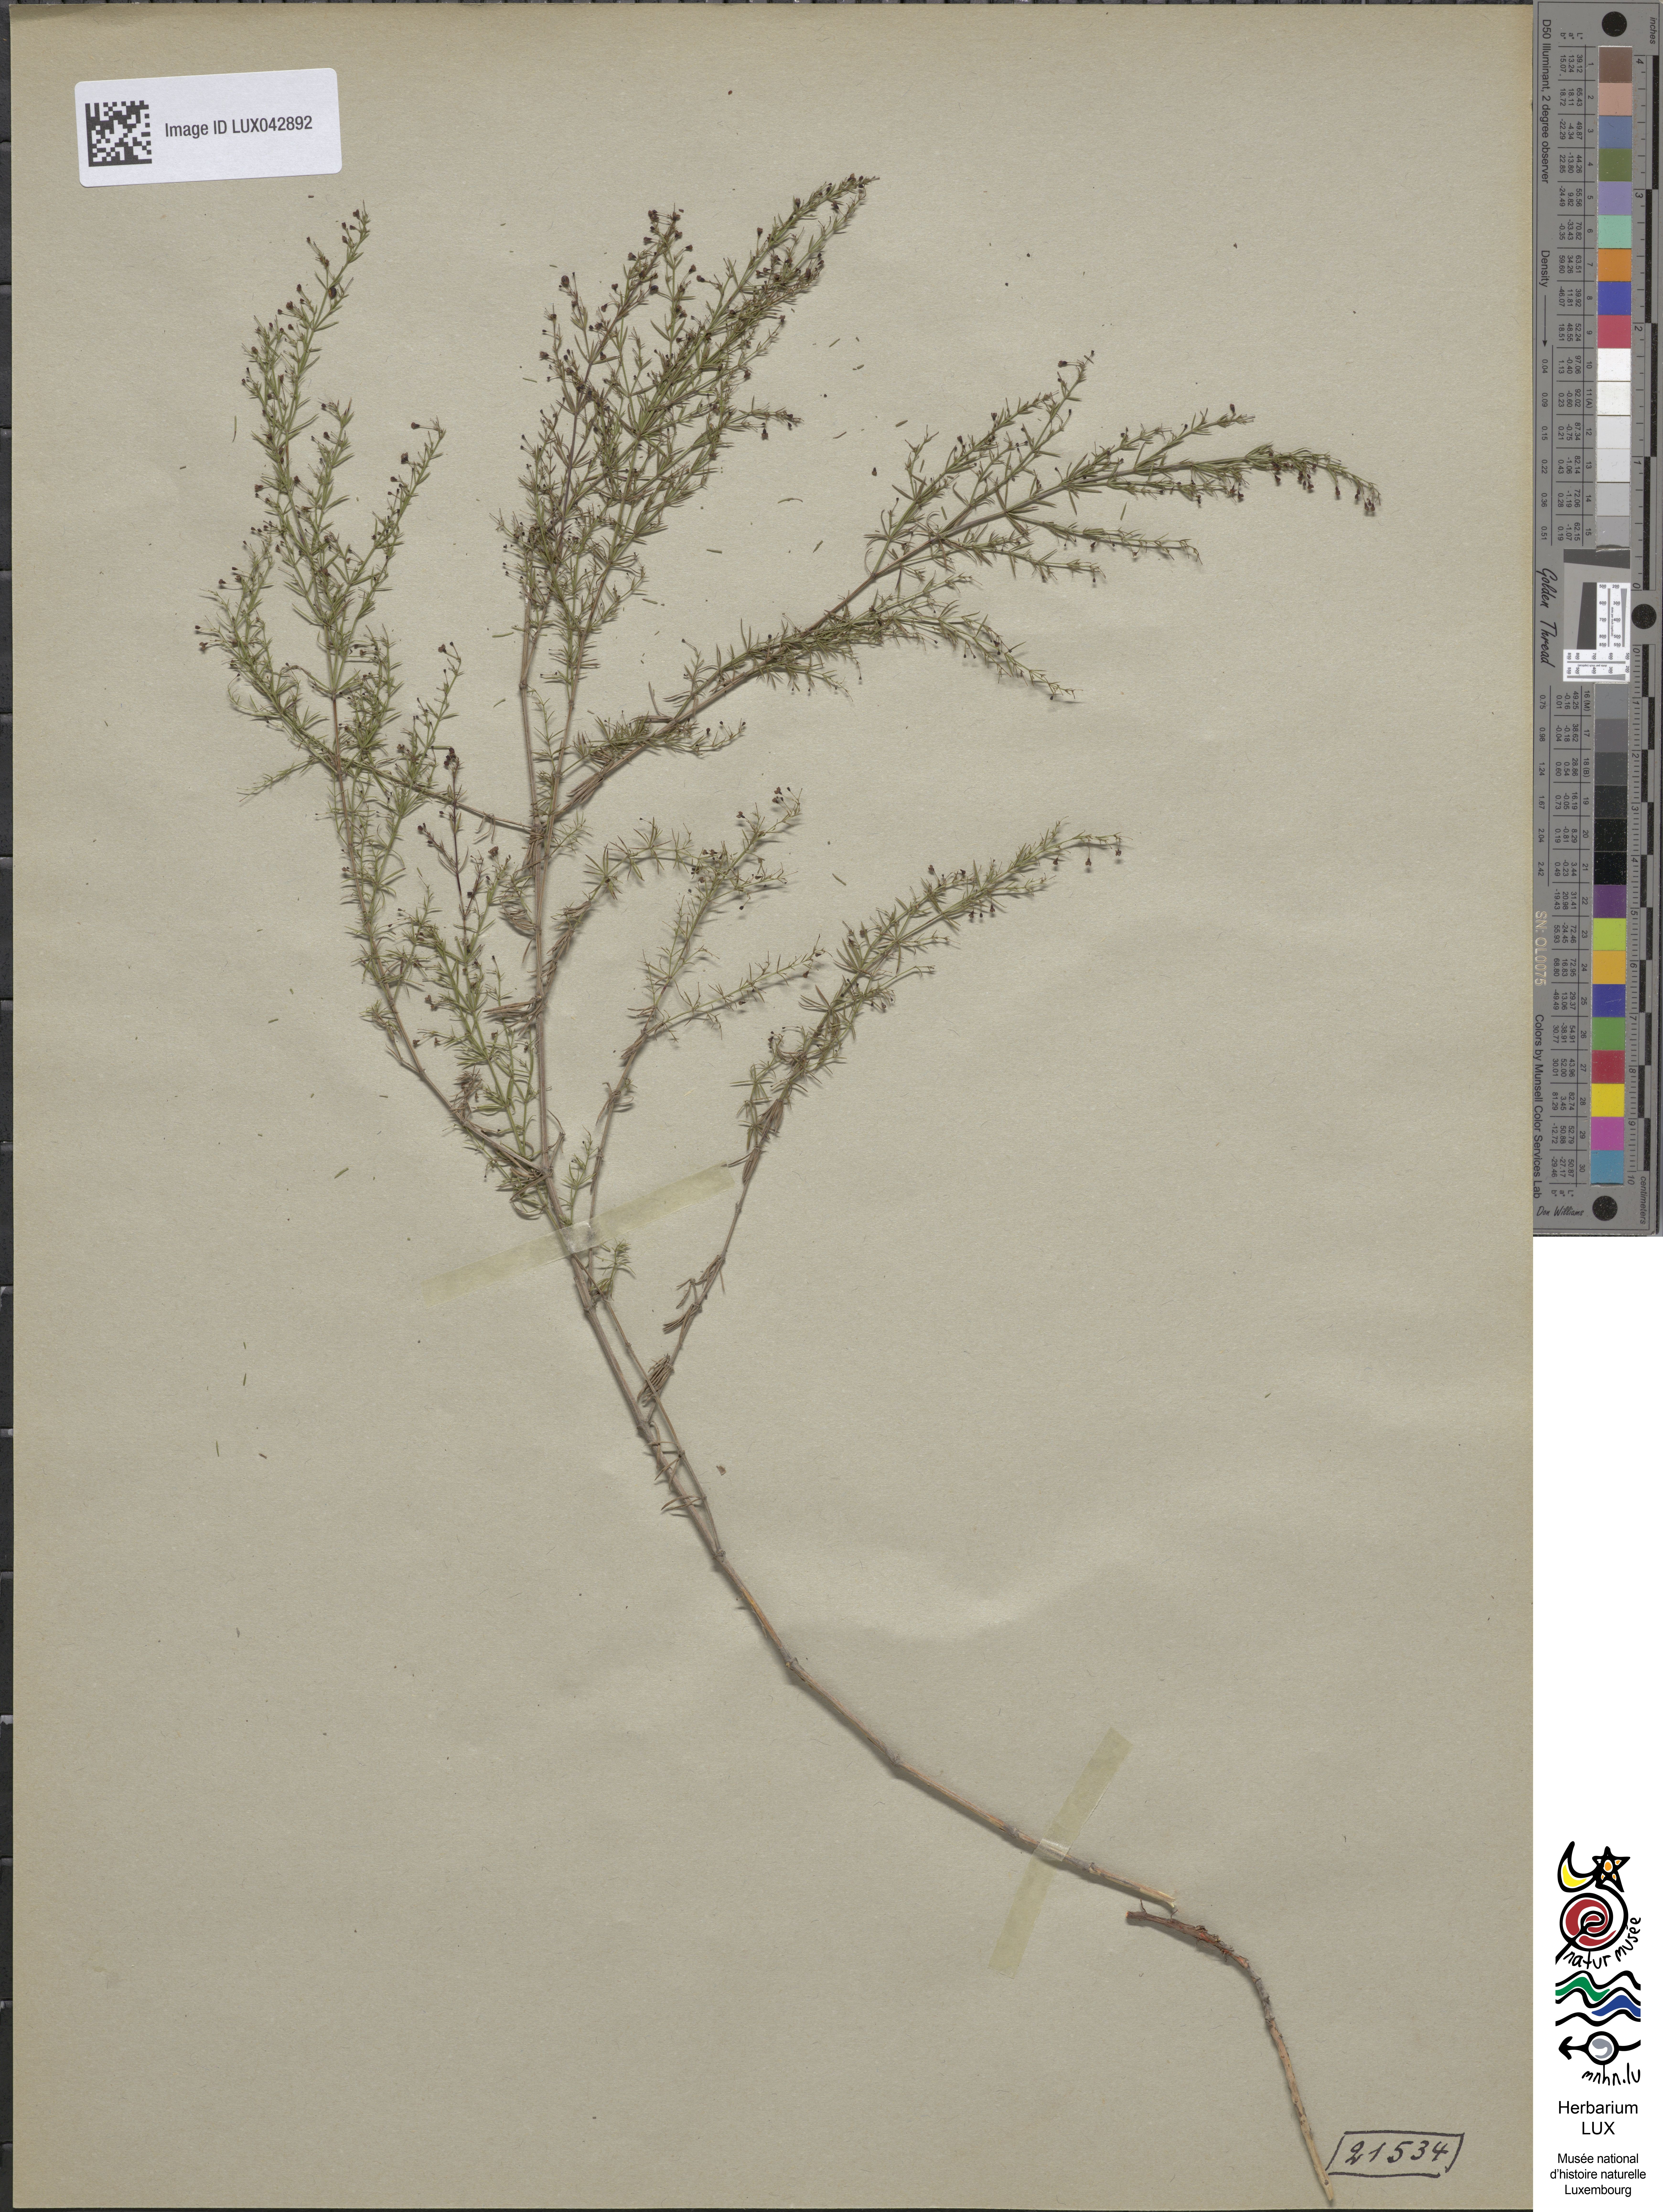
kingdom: Plantae
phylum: Tracheophyta
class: Magnoliopsida
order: Gentianales
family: Rubiaceae
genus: Thliphthisa
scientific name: Thliphthisa purpurea
